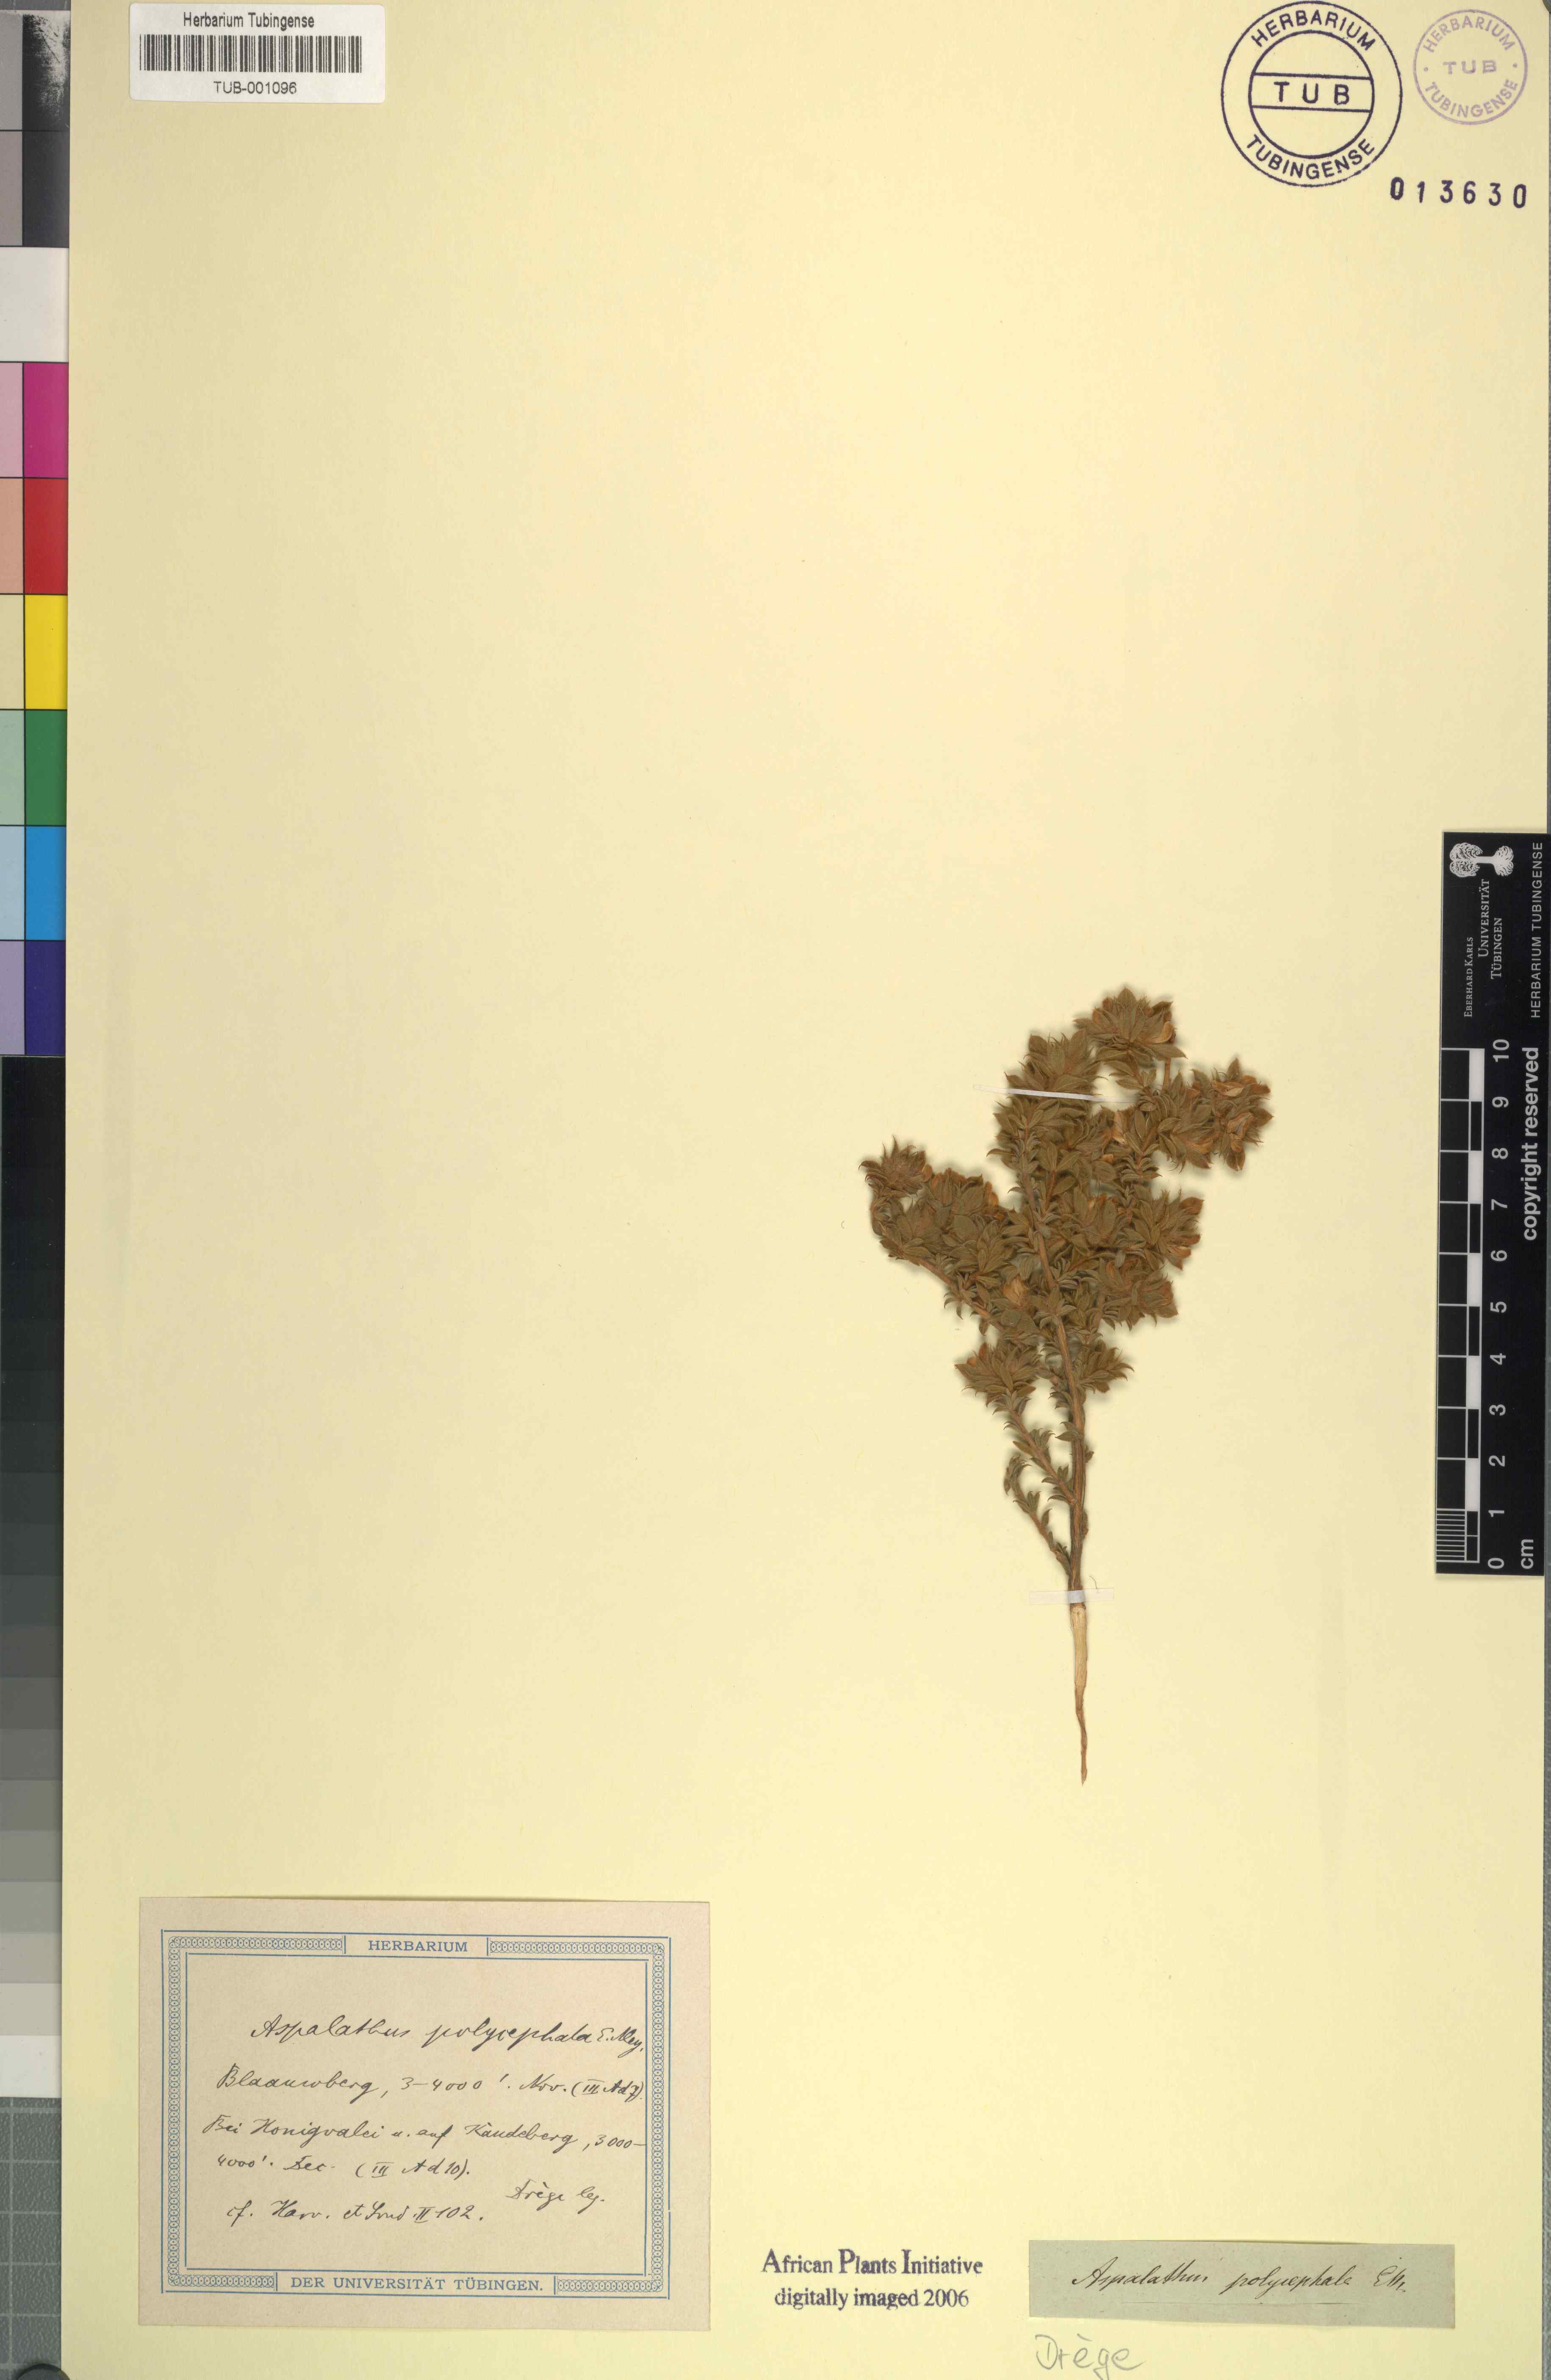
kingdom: Plantae
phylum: Tracheophyta
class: Magnoliopsida
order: Fabales
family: Fabaceae
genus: Aspalathus
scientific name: Aspalathus polycephala
